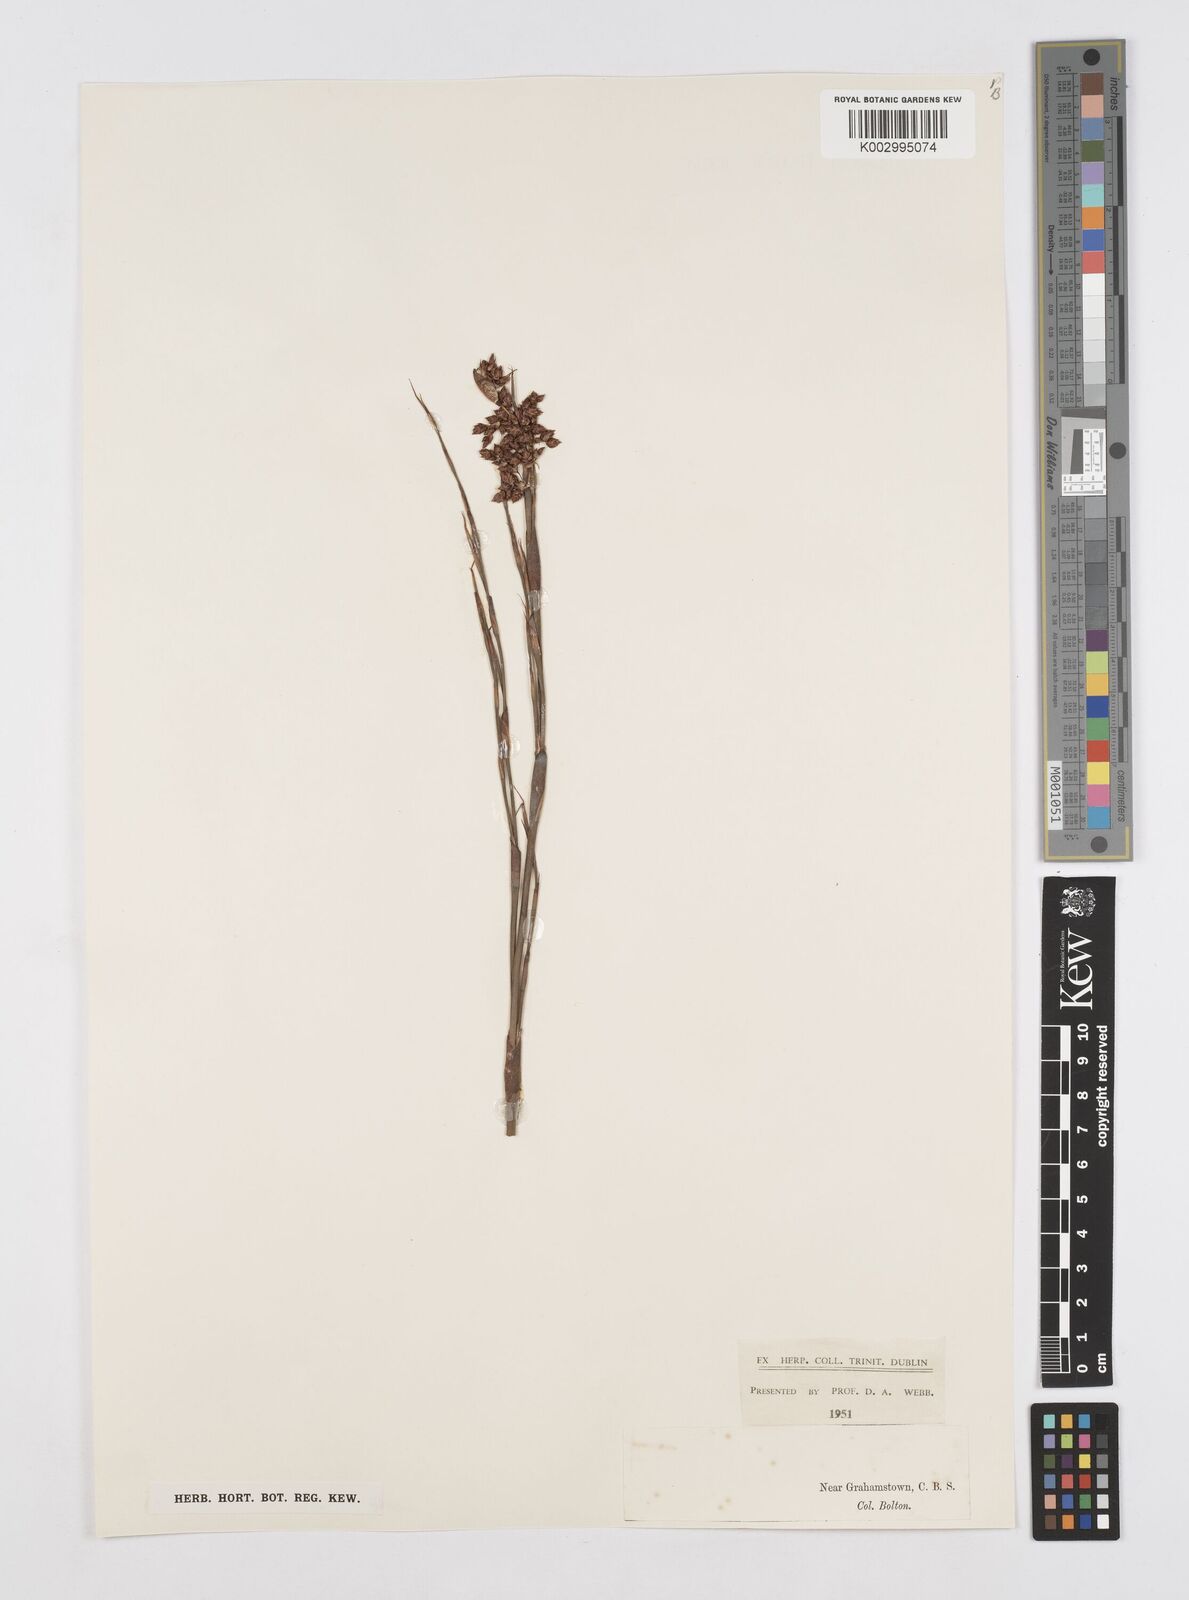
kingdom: Plantae
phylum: Tracheophyta
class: Liliopsida
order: Poales
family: Restionaceae
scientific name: Restionaceae
